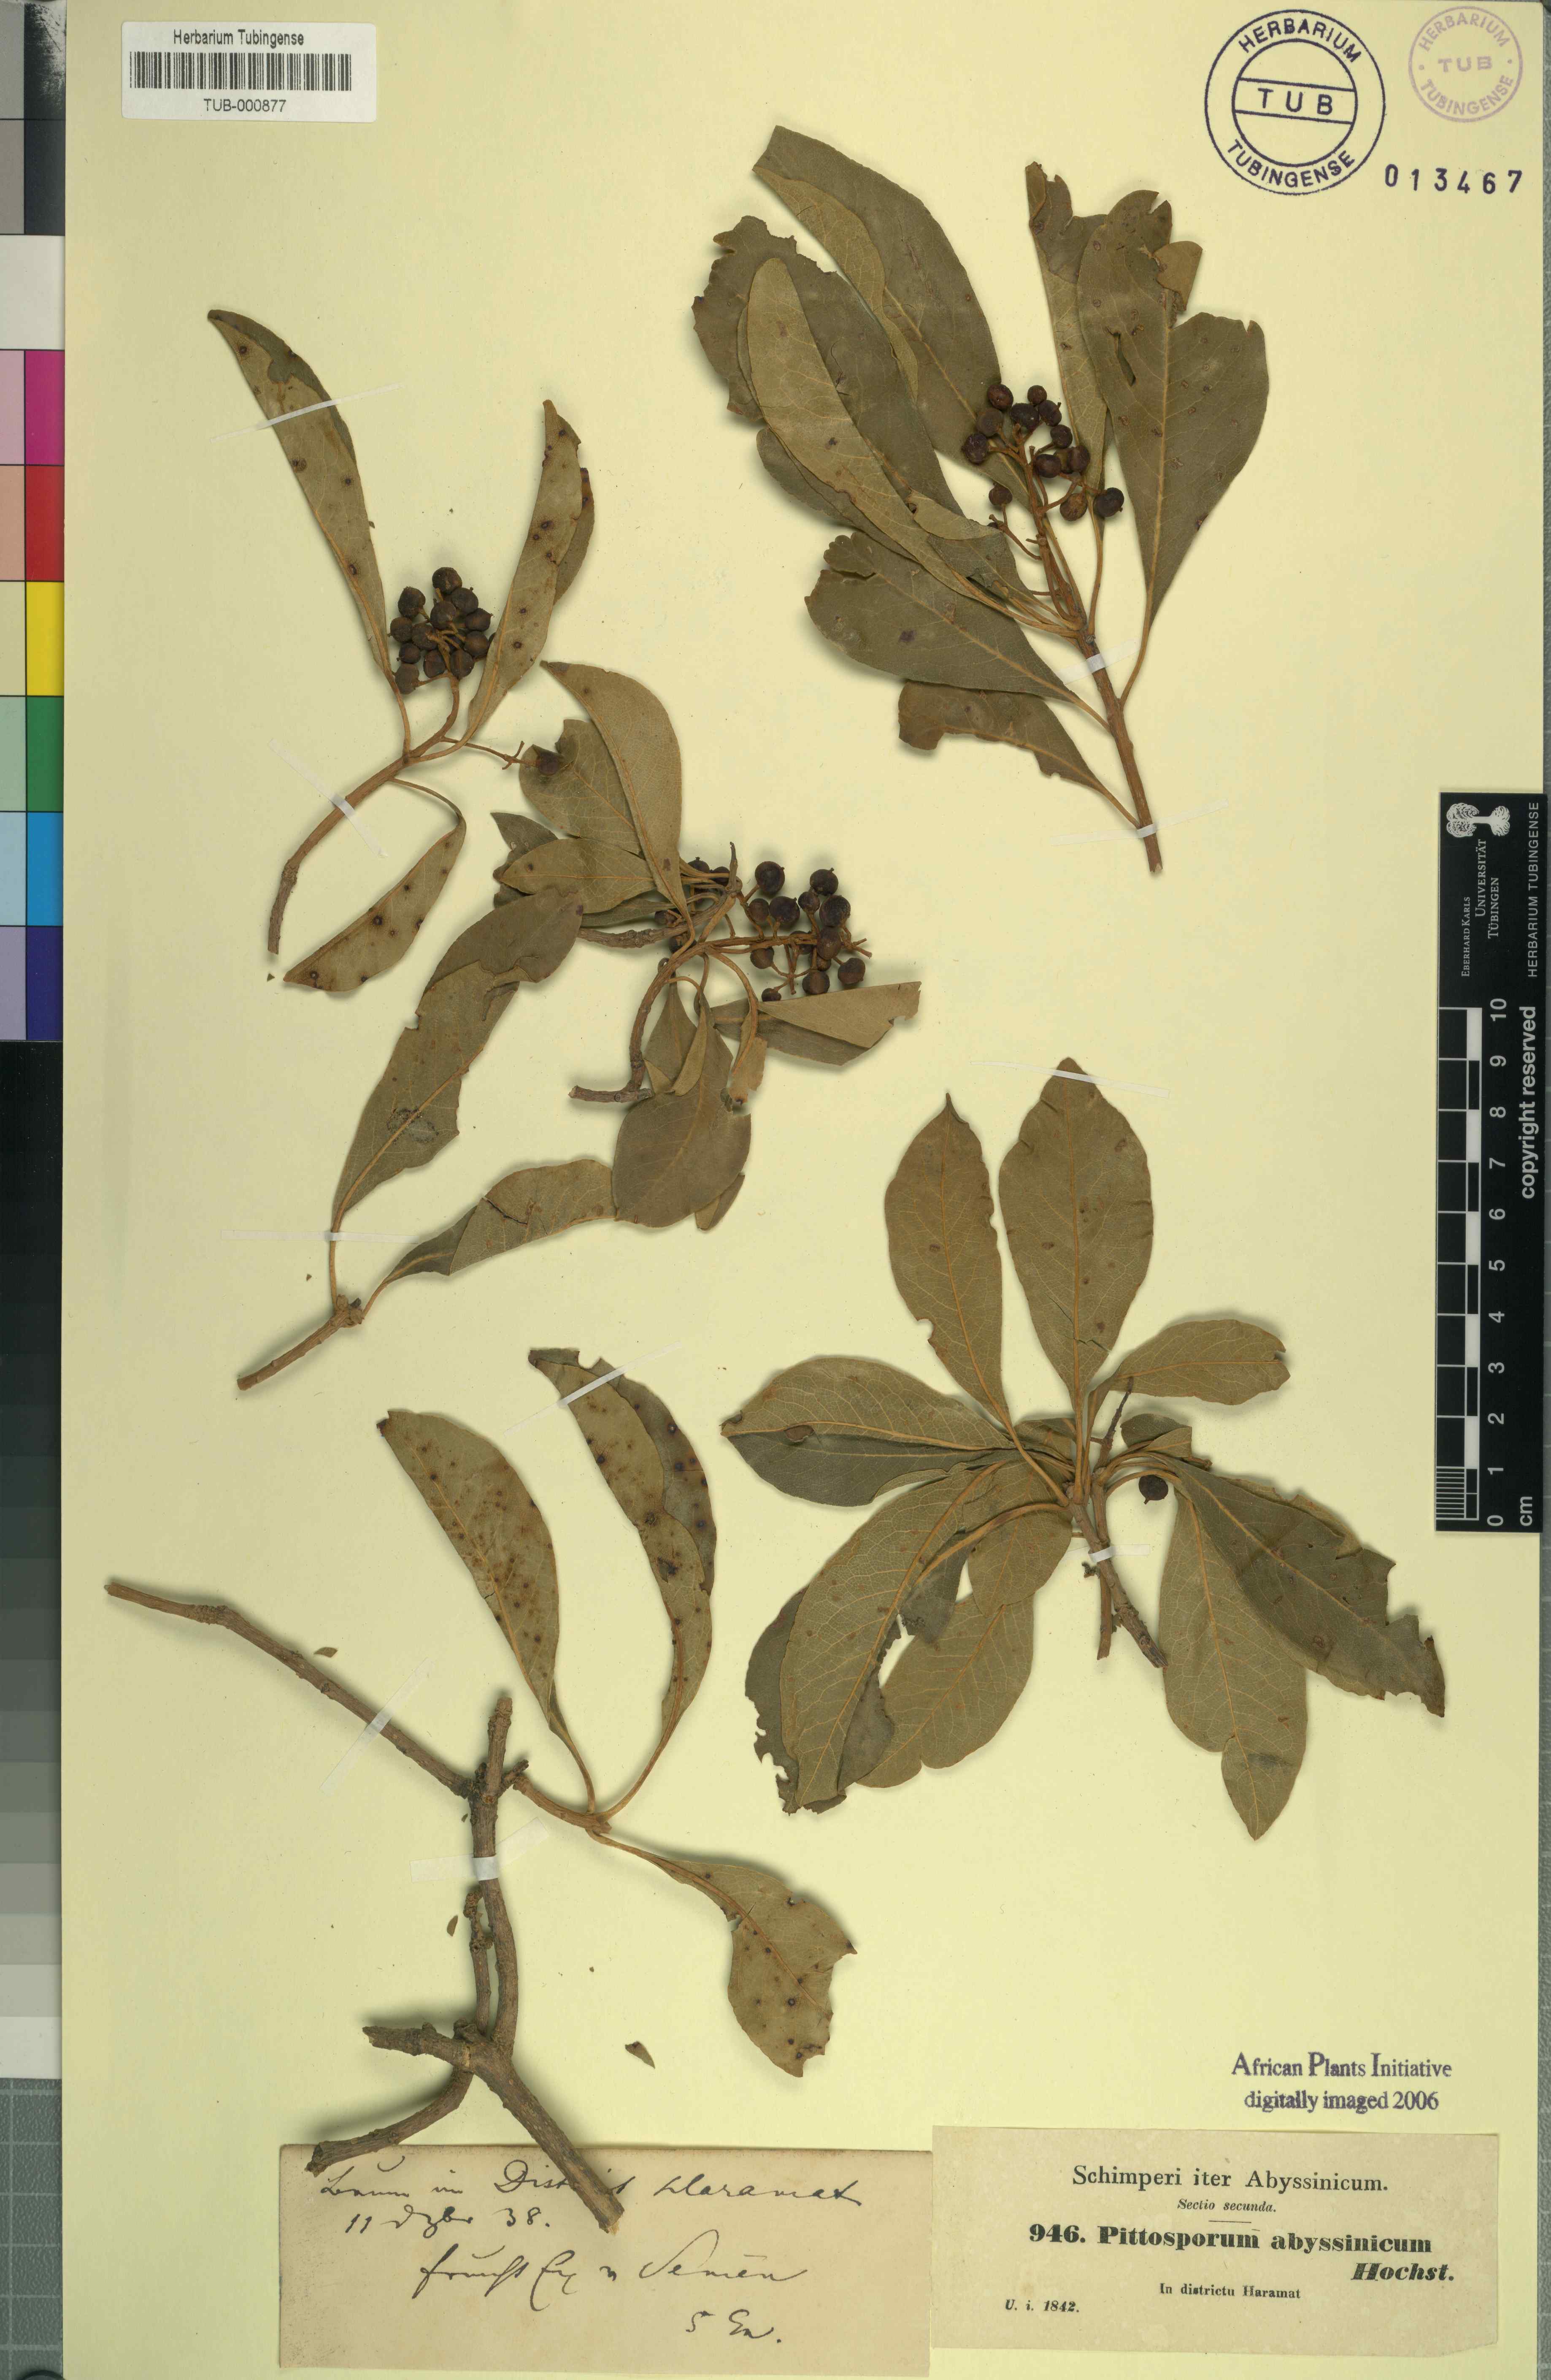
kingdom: Plantae
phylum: Tracheophyta
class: Magnoliopsida
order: Apiales
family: Pittosporaceae
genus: Pittosporum
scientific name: Pittosporum abyssinicum
